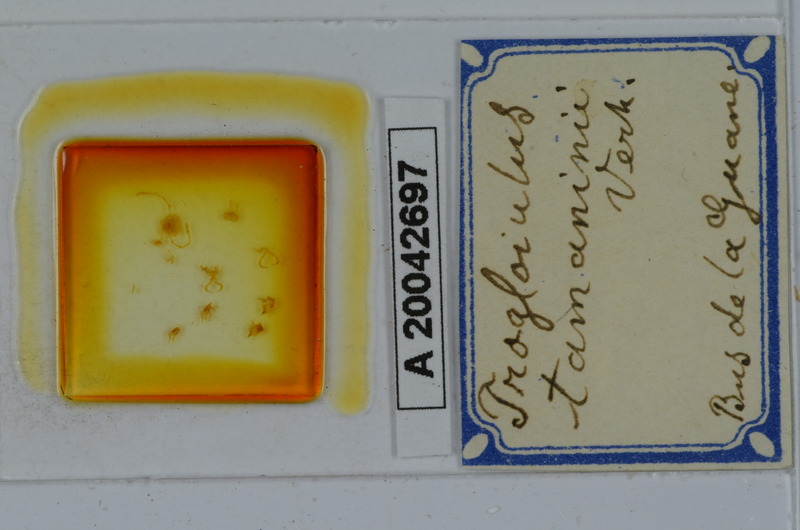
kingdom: Animalia
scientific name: Animalia
